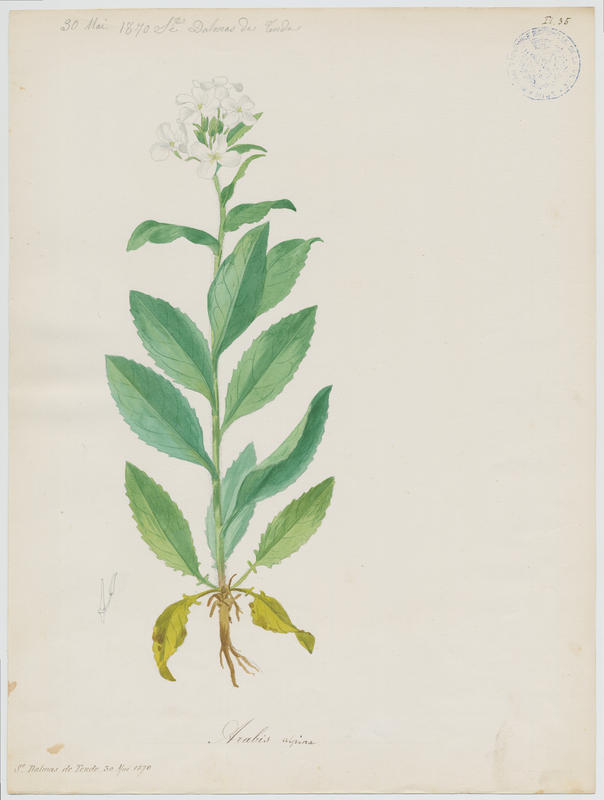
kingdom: Plantae
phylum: Tracheophyta
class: Magnoliopsida
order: Brassicales
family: Brassicaceae
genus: Arabis
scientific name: Arabis alpina
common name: Alpine rock-cress
